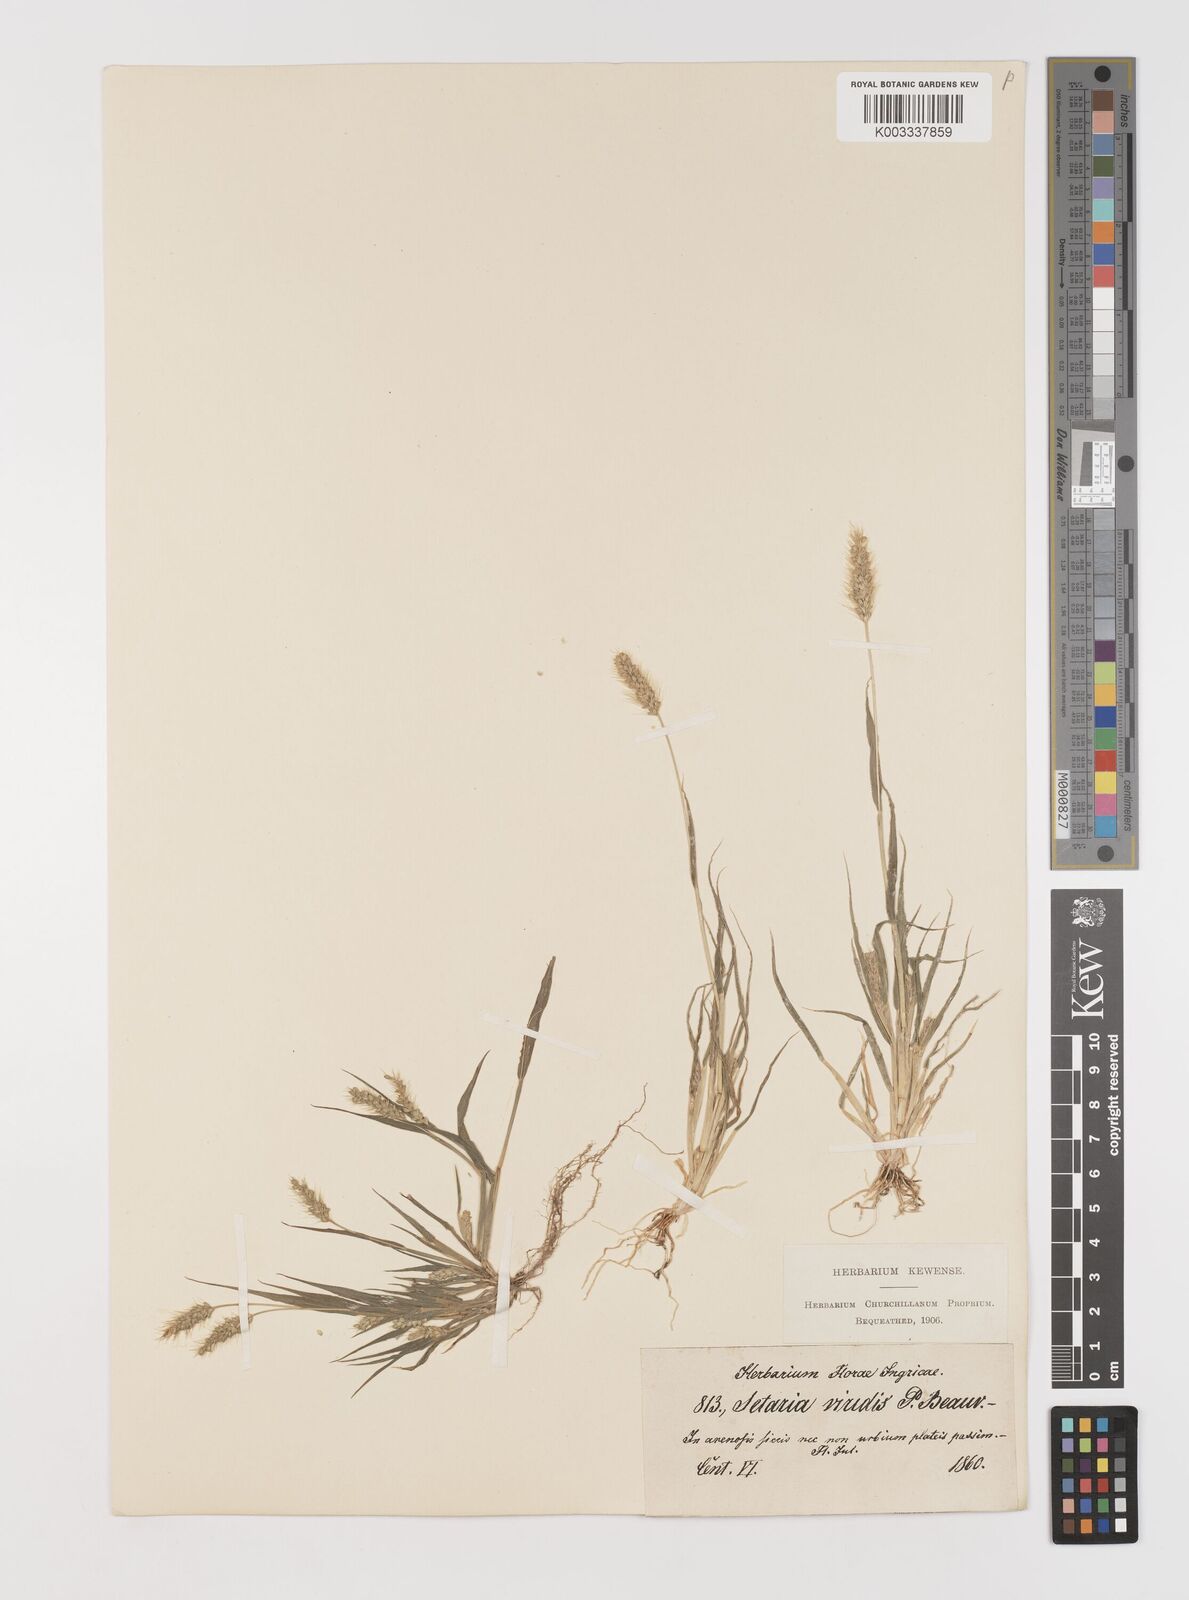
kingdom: Plantae
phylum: Tracheophyta
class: Liliopsida
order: Poales
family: Poaceae
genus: Setaria
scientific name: Setaria viridis
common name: Green bristlegrass
